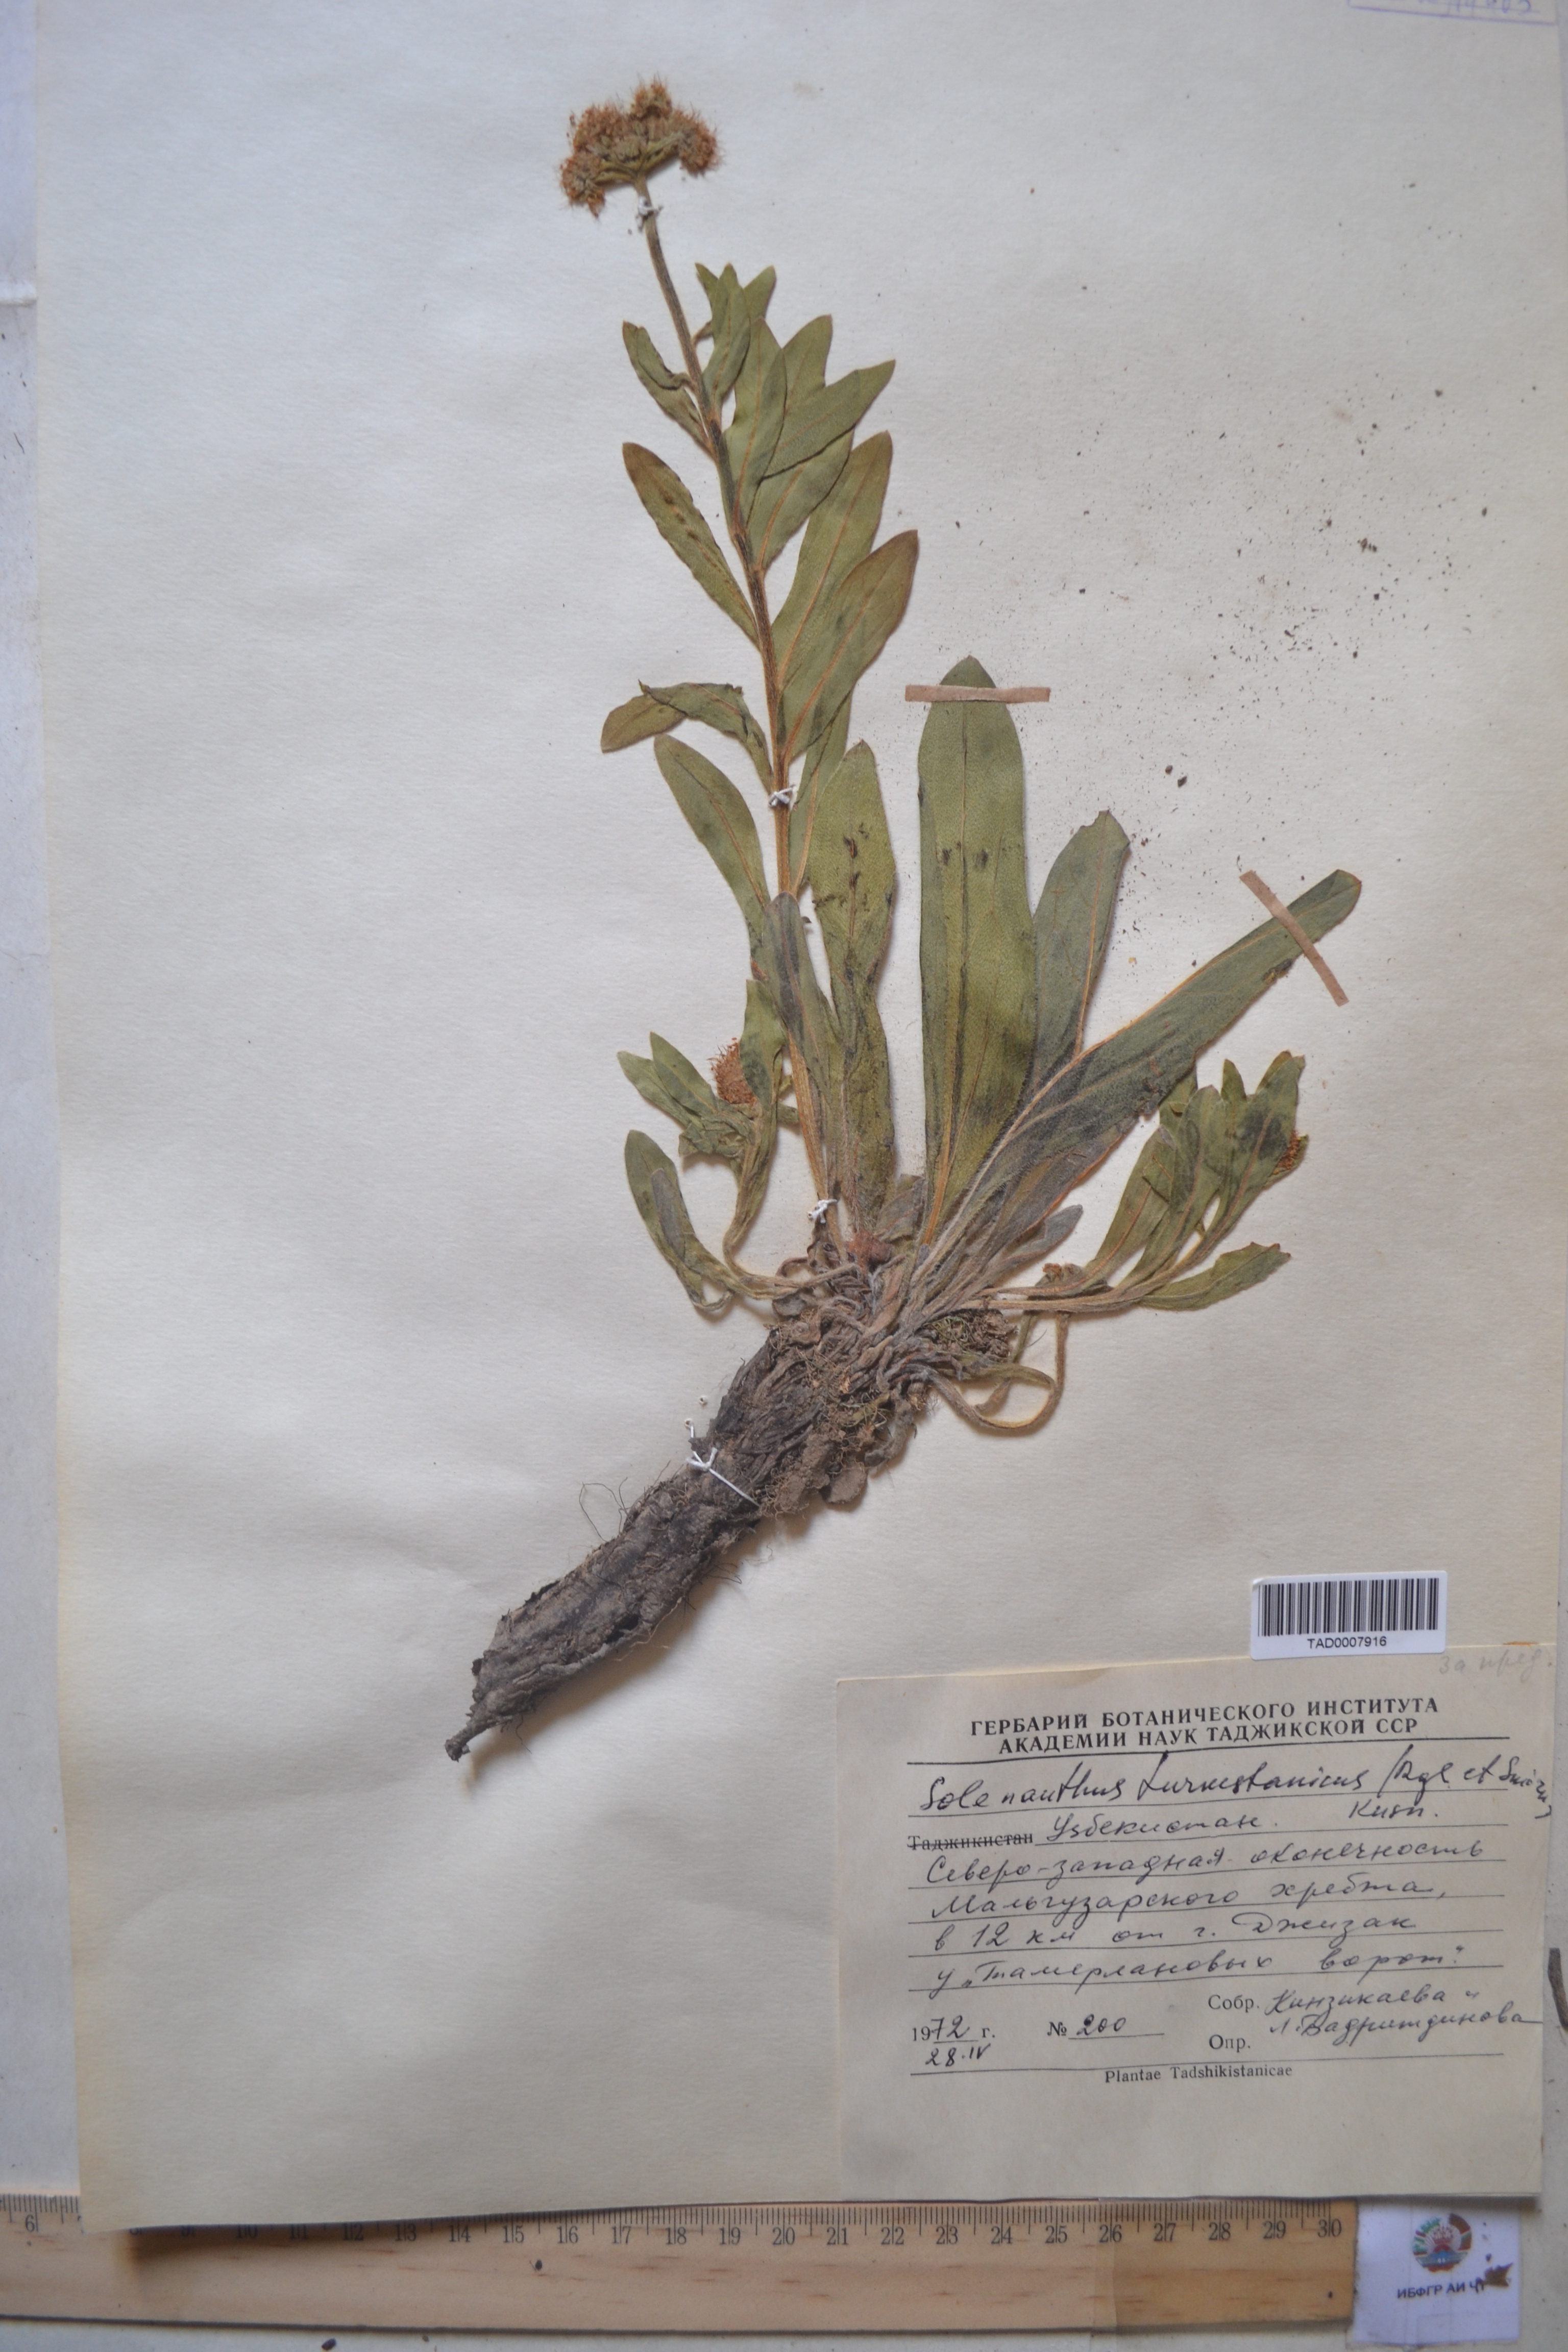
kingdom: Plantae
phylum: Tracheophyta
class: Magnoliopsida
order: Boraginales
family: Boraginaceae
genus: Solenanthus
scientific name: Solenanthus turkestanicus
